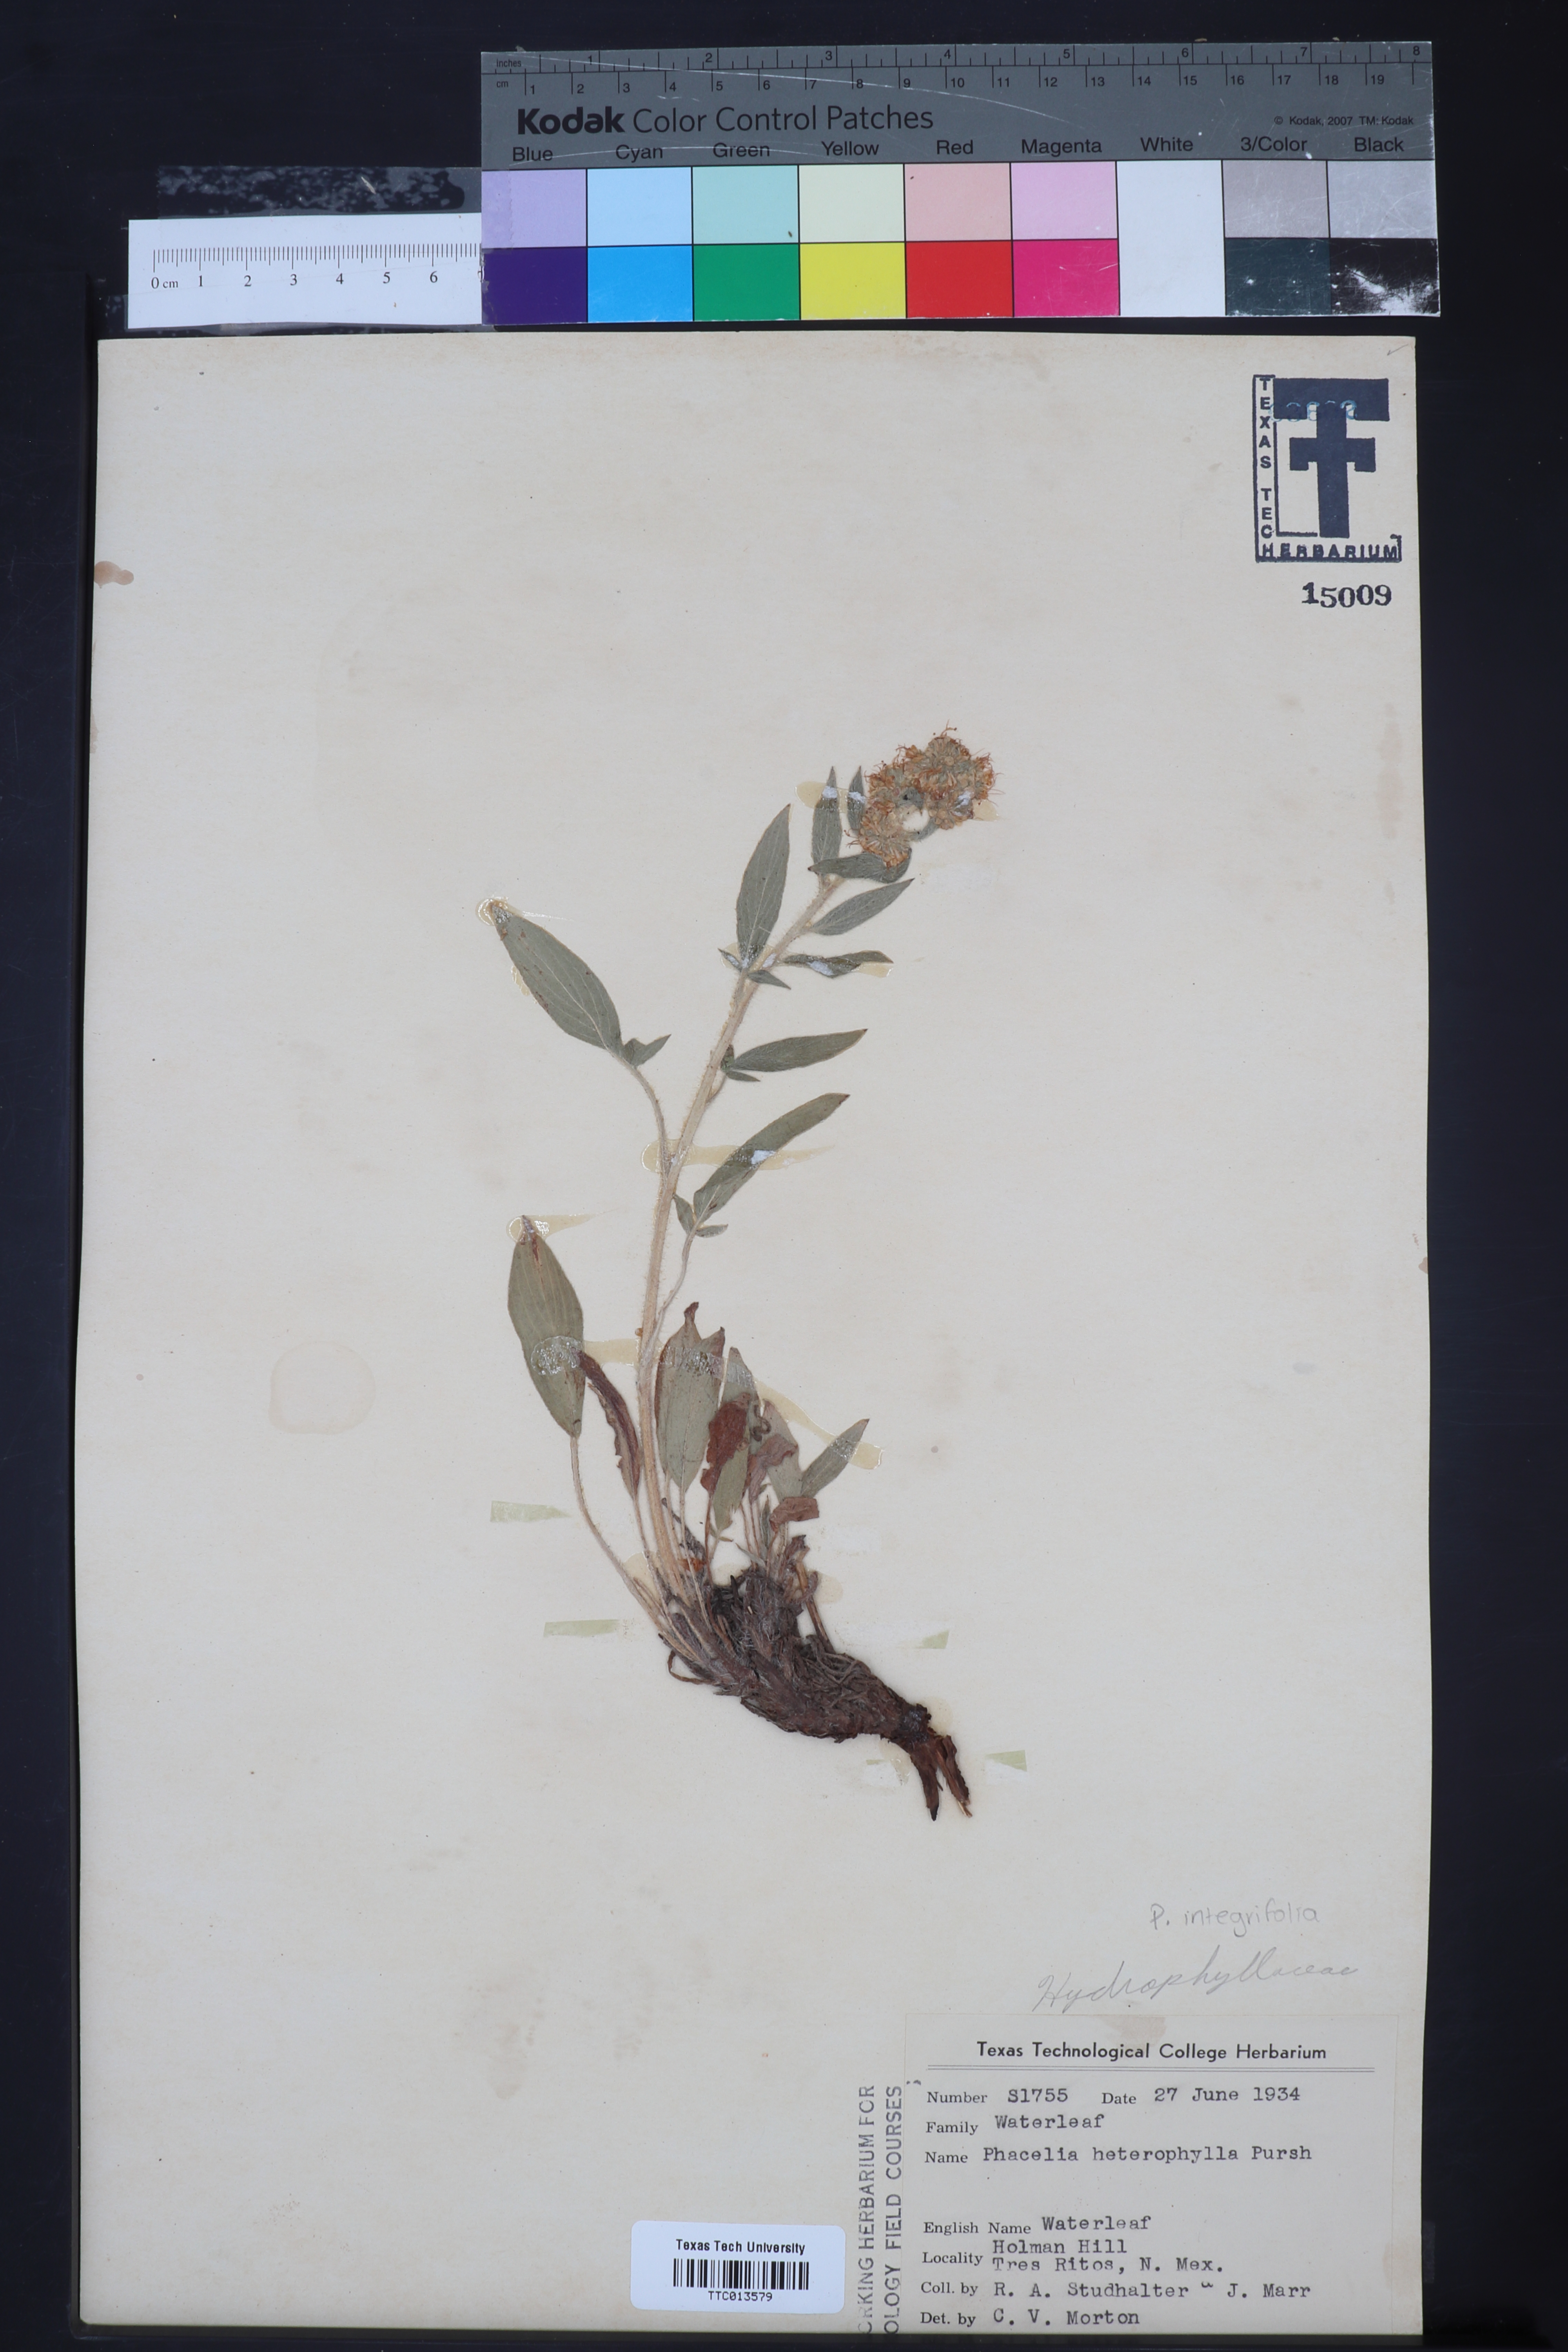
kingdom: Plantae
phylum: Tracheophyta
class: Magnoliopsida
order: Boraginales
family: Hydrophyllaceae
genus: Phacelia
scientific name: Phacelia hirsuta
